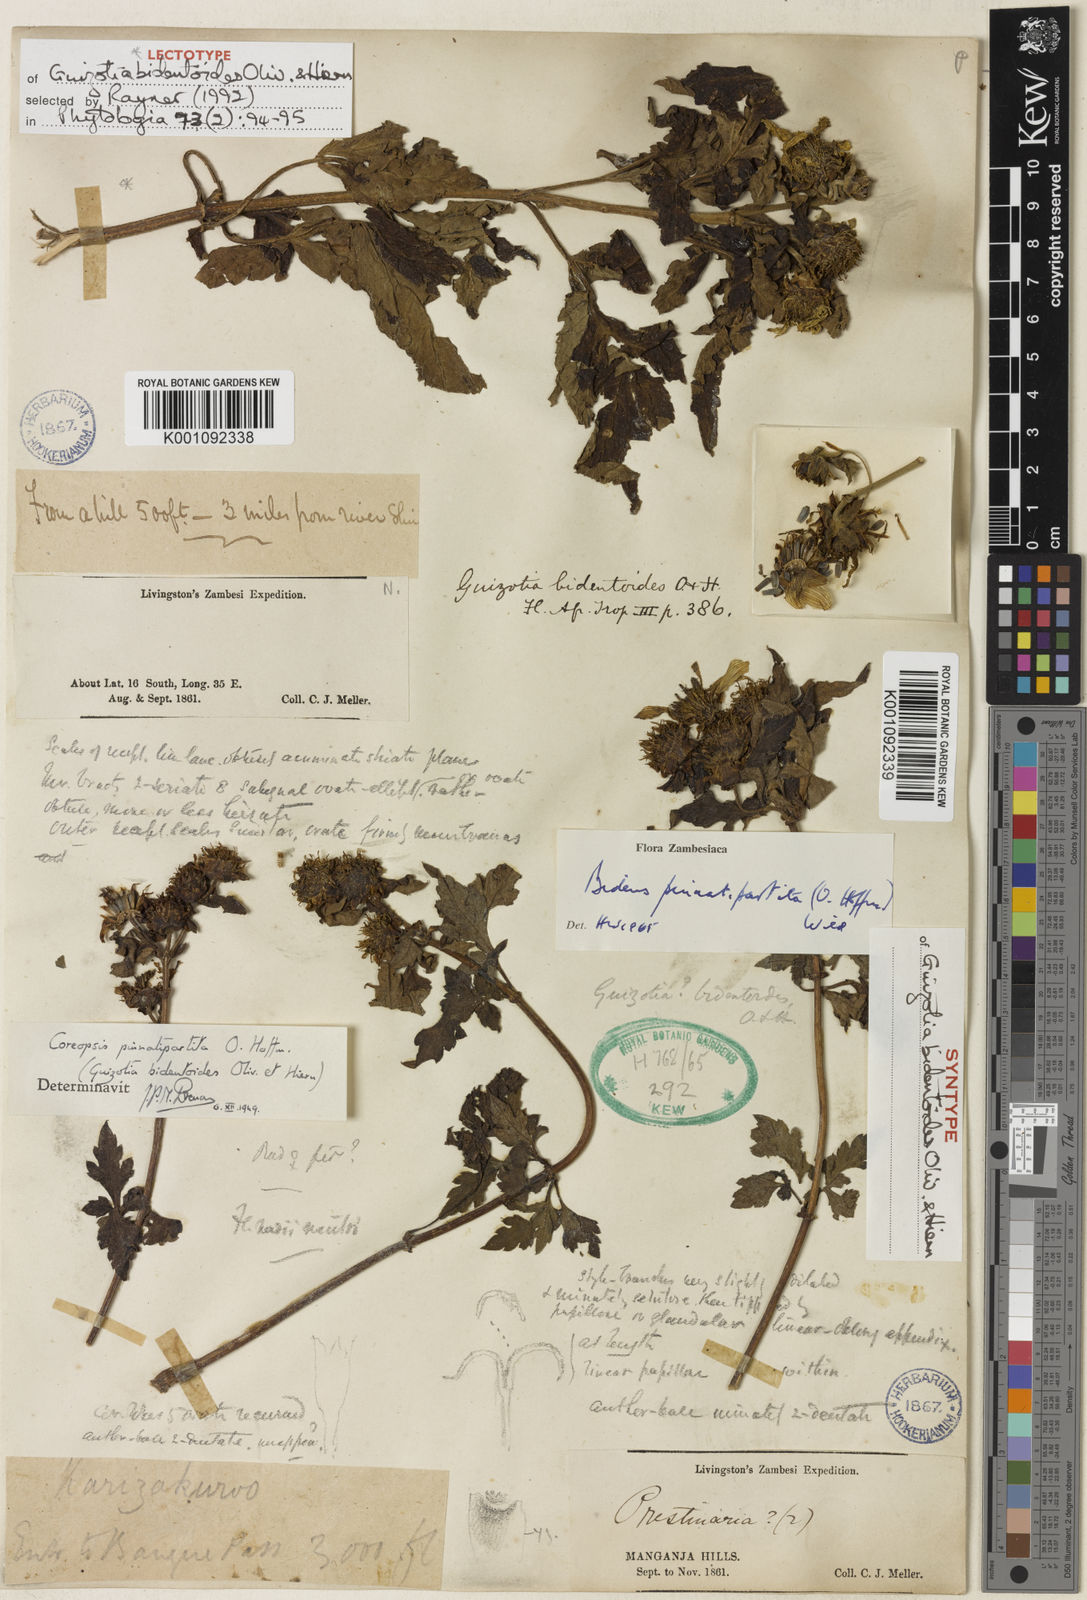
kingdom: Plantae
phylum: Tracheophyta
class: Magnoliopsida
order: Asterales
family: Asteraceae
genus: Bidens
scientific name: Bidens pinnatipartita
